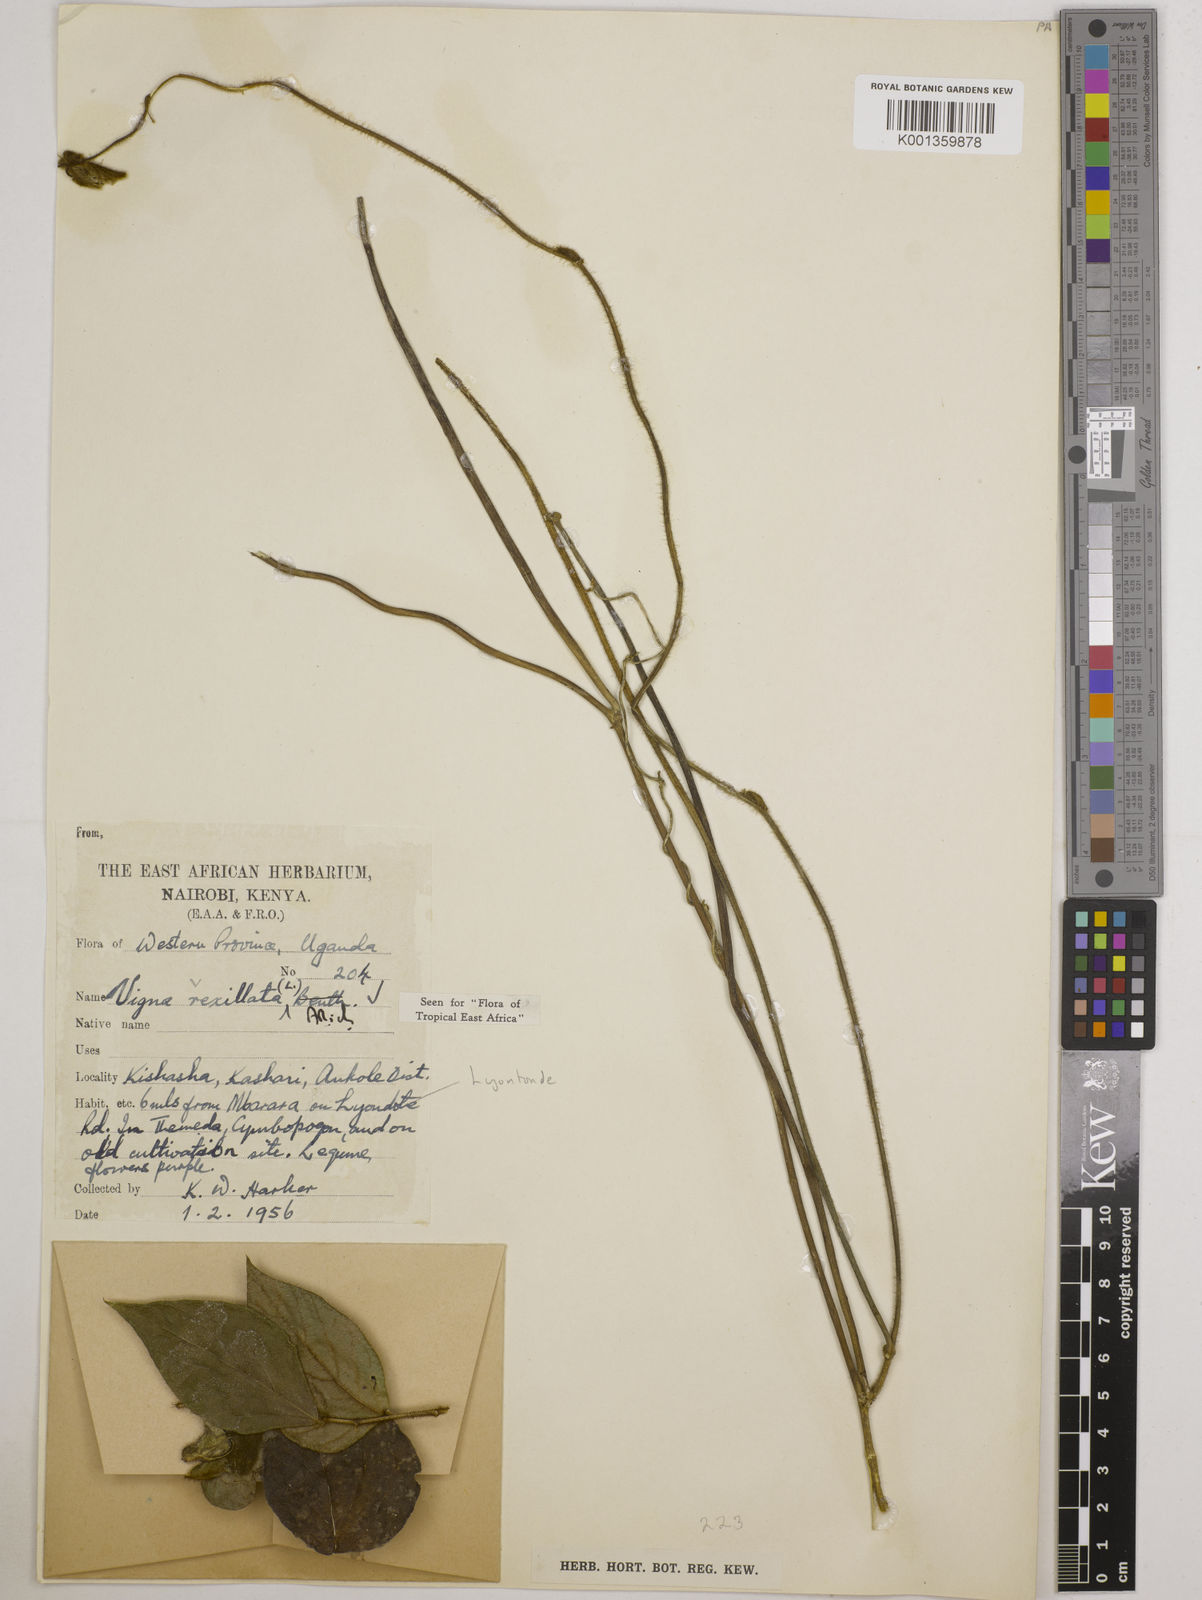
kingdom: Plantae
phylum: Tracheophyta
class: Magnoliopsida
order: Fabales
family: Fabaceae
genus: Vigna
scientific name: Vigna vexillata
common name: Zombi pea
